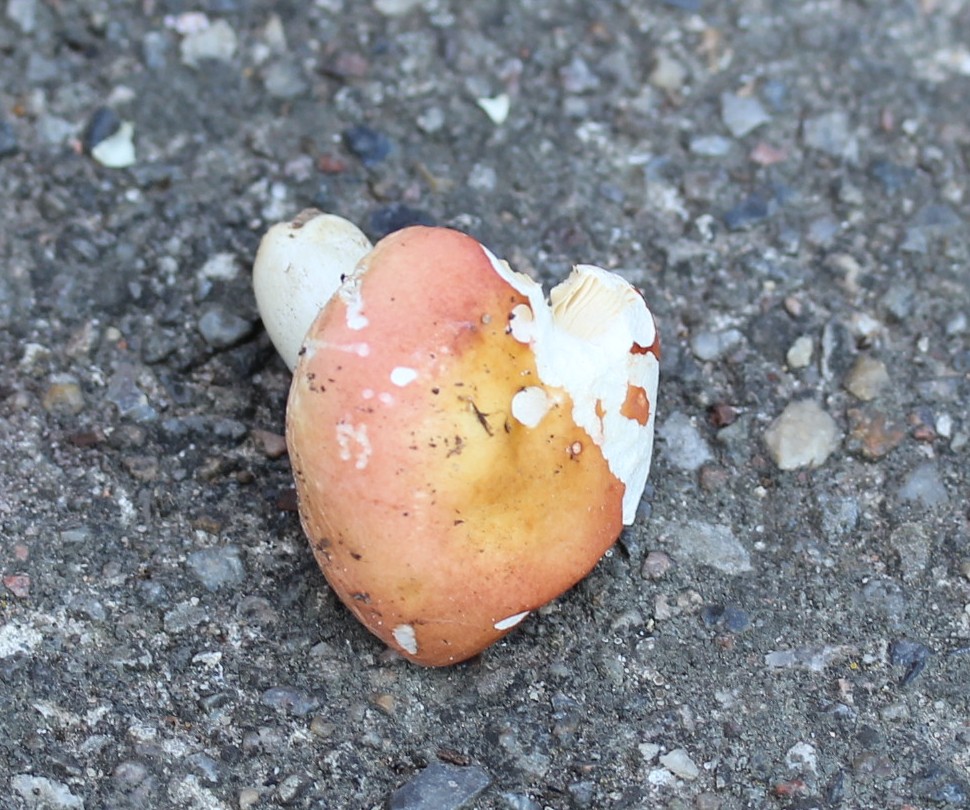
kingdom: Fungi
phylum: Basidiomycota
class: Agaricomycetes
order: Russulales
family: Russulaceae
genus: Russula
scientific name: Russula aurora
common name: rosa skørhat
